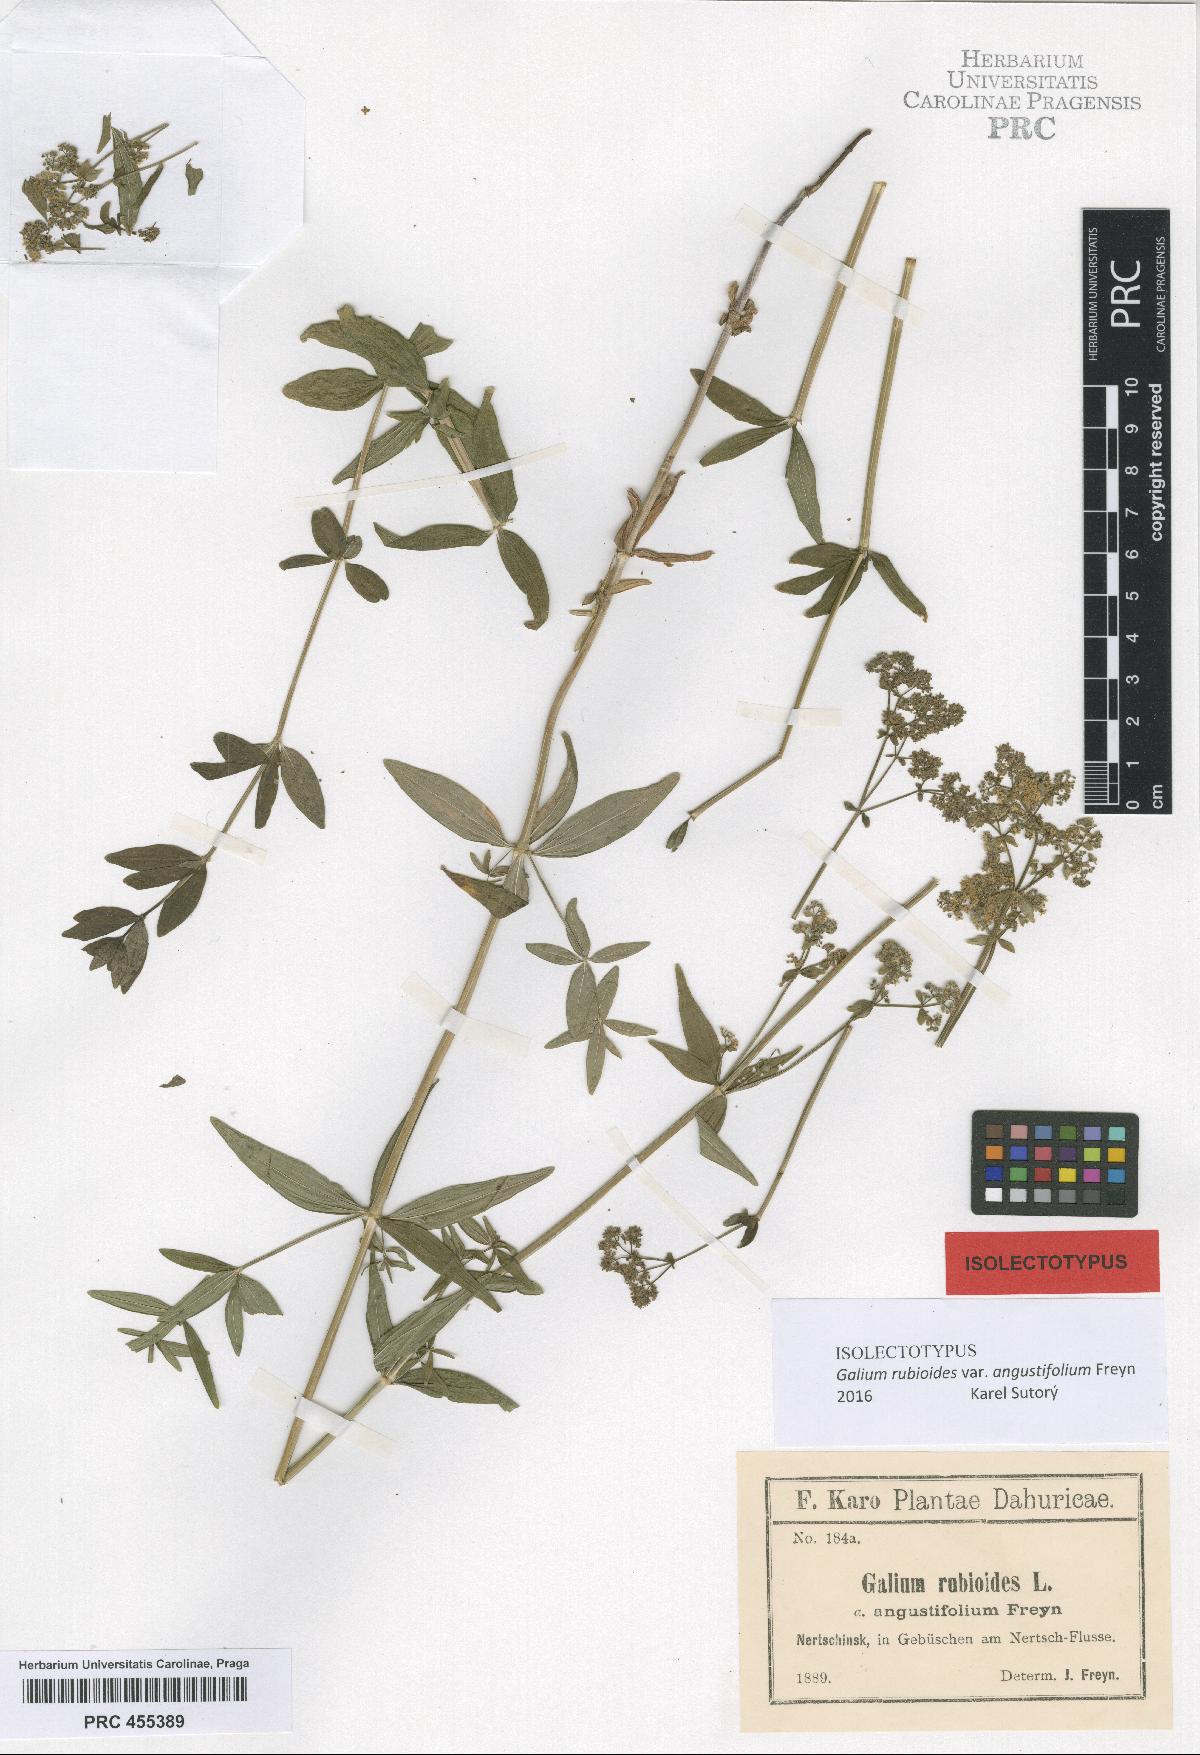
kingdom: Plantae
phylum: Tracheophyta
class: Magnoliopsida
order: Gentianales
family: Rubiaceae
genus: Galium
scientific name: Galium boreale
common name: Northern bedstraw
